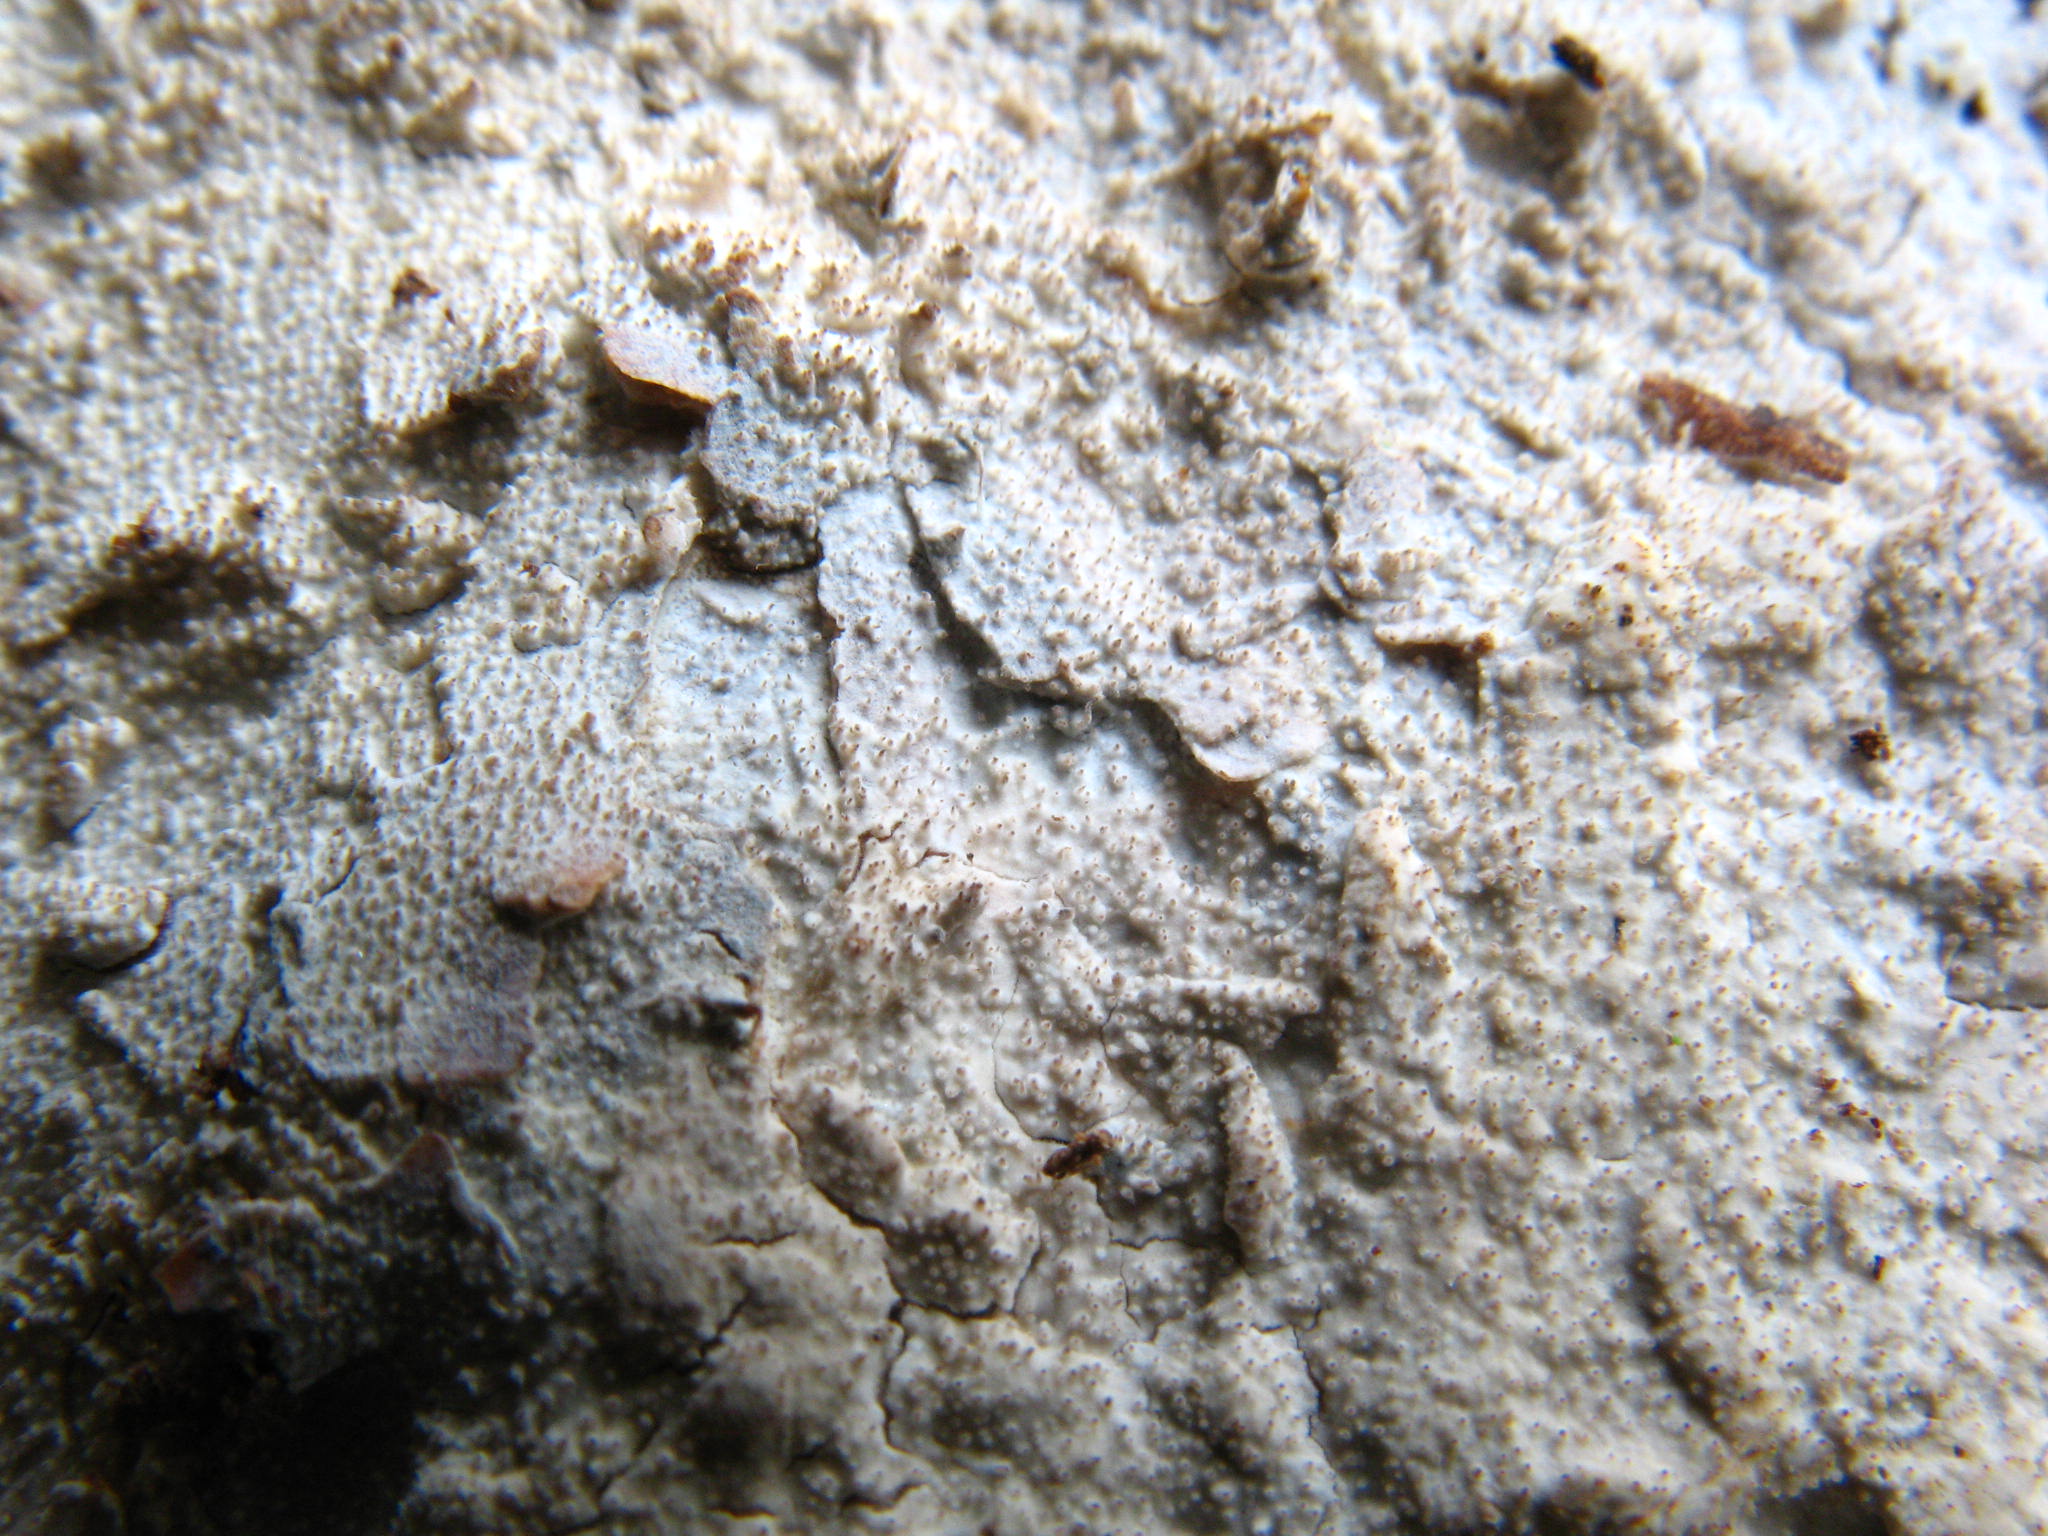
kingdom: Fungi
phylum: Basidiomycota
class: Agaricomycetes
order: Hymenochaetales
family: Rickenellaceae
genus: Resinicium
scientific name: Resinicium bicolor
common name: Hallowed crust
